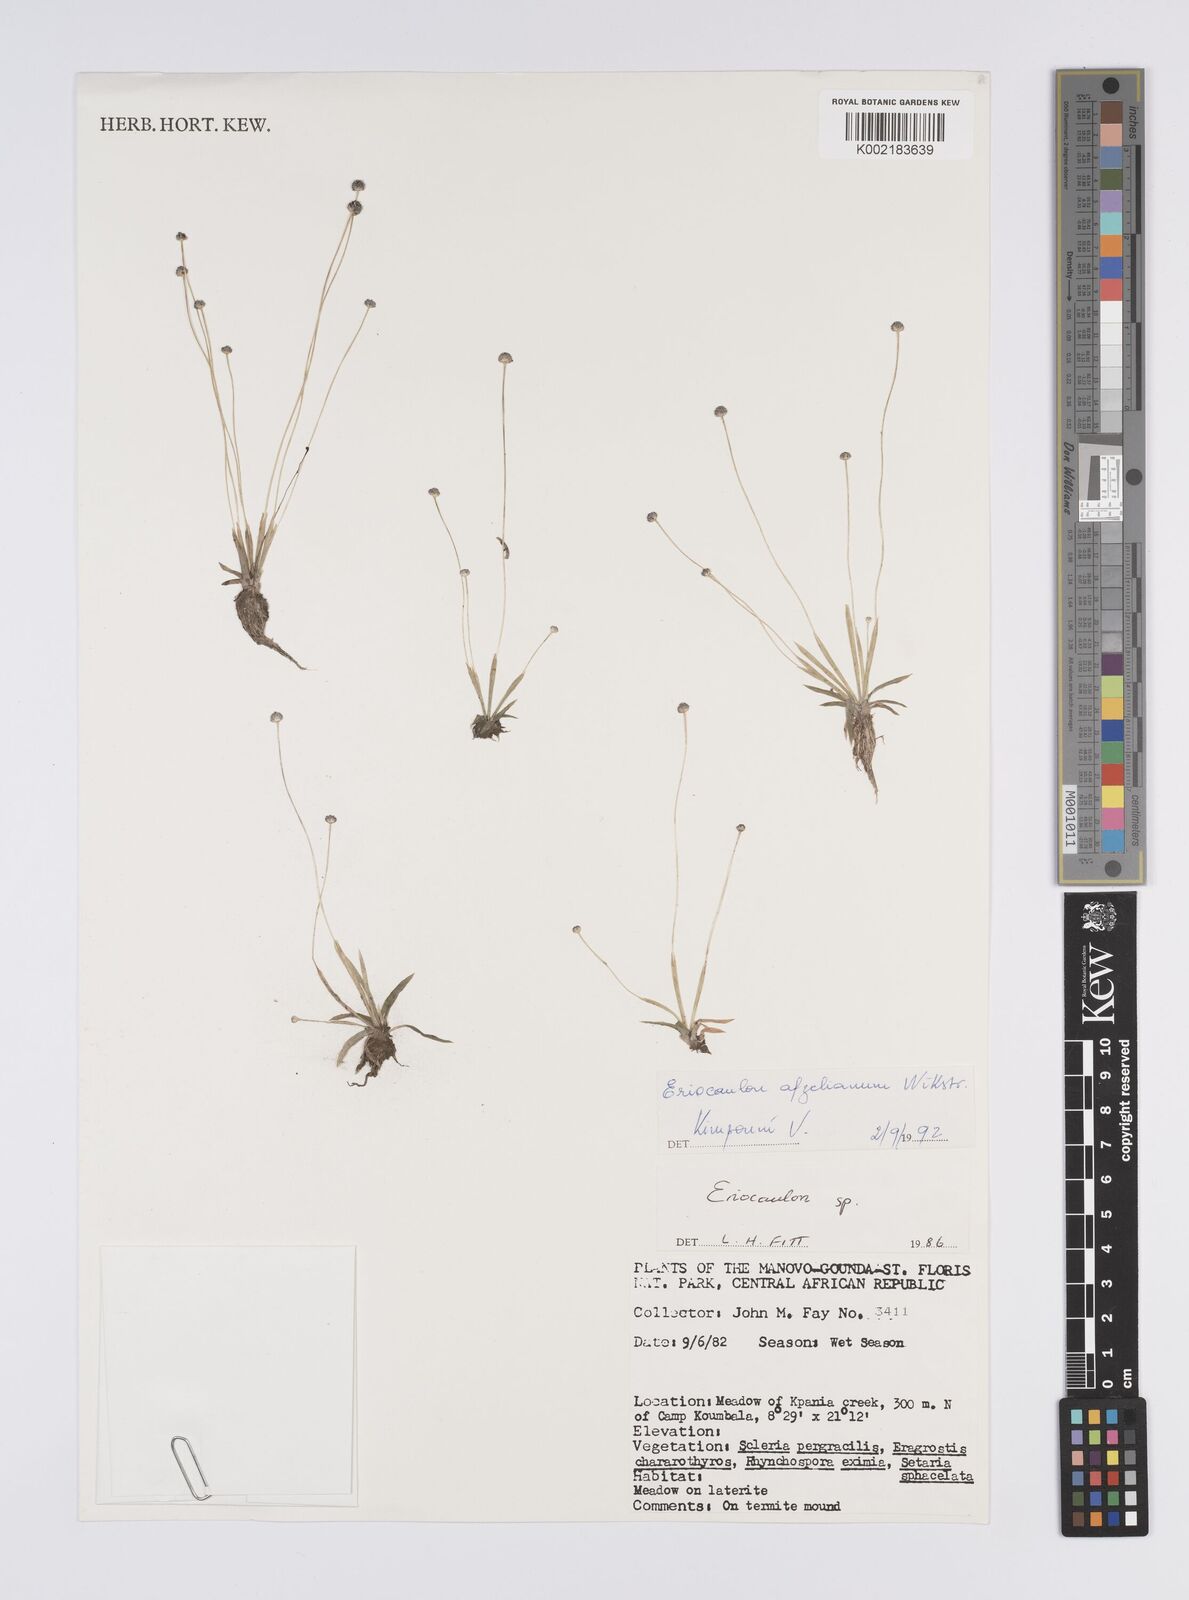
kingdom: Plantae
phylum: Tracheophyta
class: Liliopsida
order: Poales
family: Eriocaulaceae
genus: Eriocaulon
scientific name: Eriocaulon afzelianum
